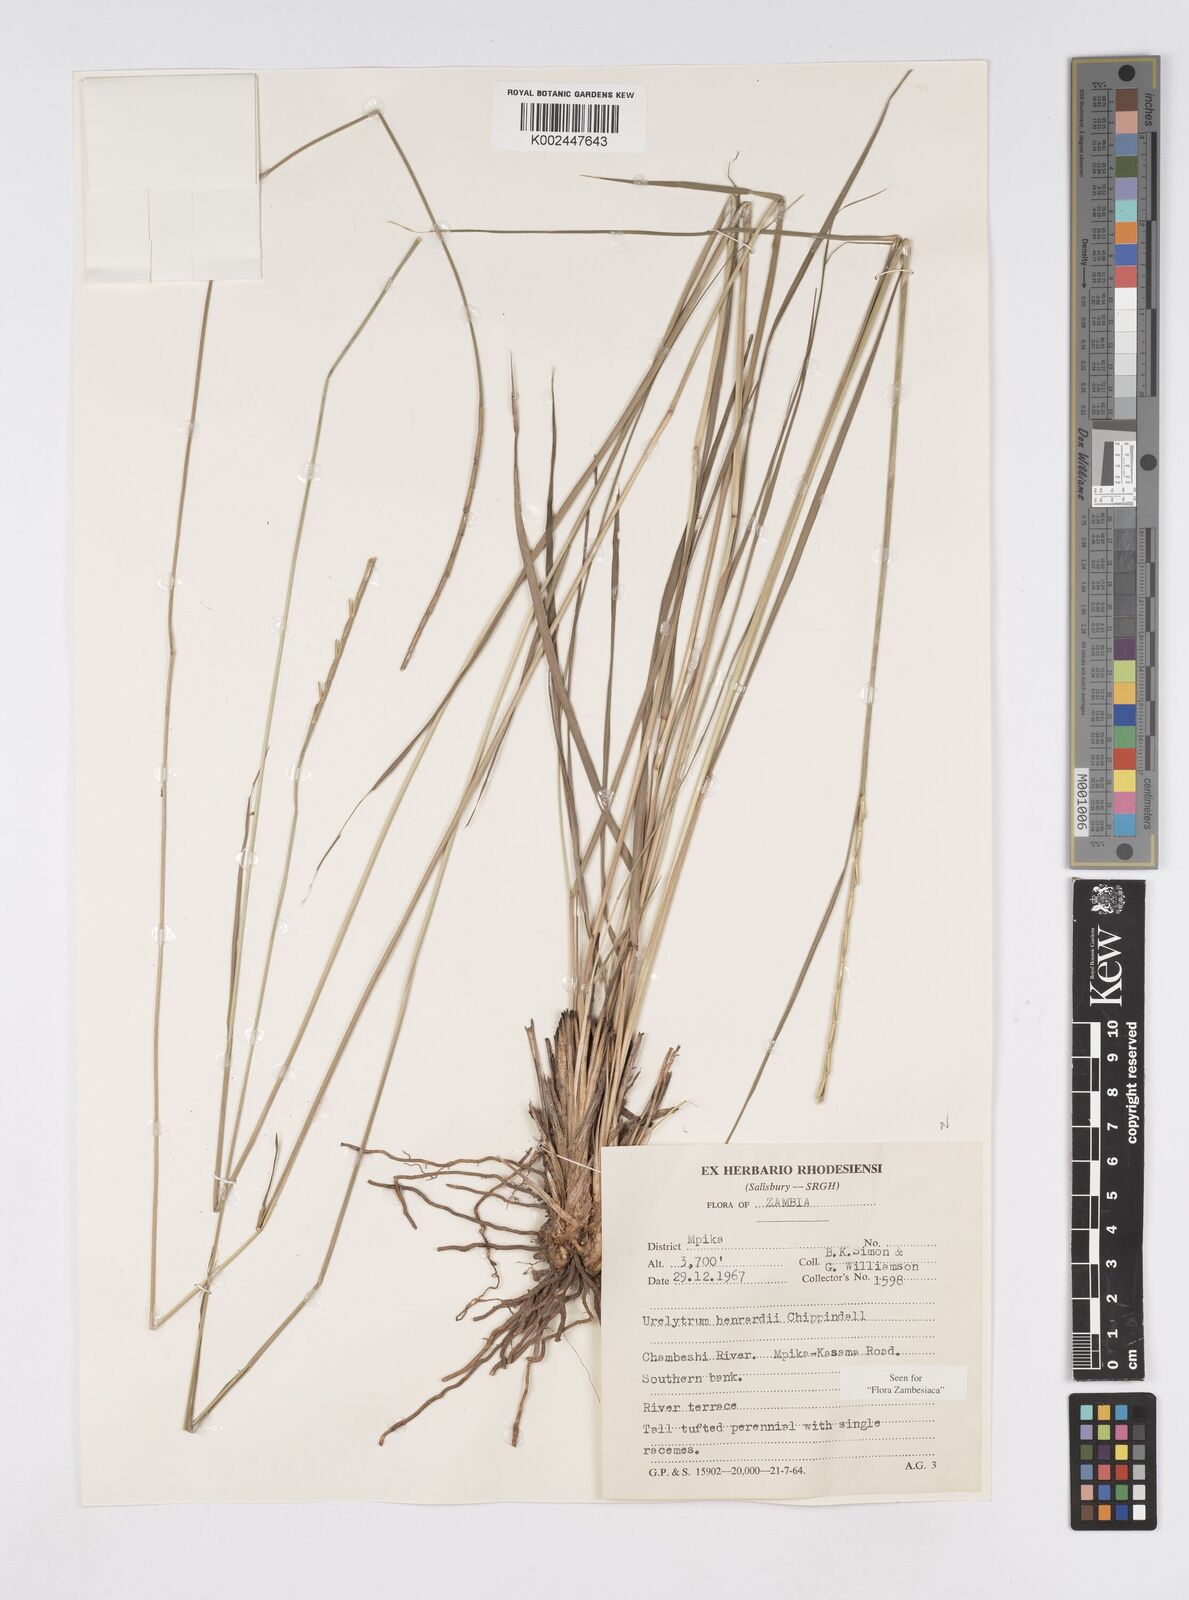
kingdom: Plantae
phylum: Tracheophyta
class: Liliopsida
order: Poales
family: Poaceae
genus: Urelytrum
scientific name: Urelytrum henrardii
